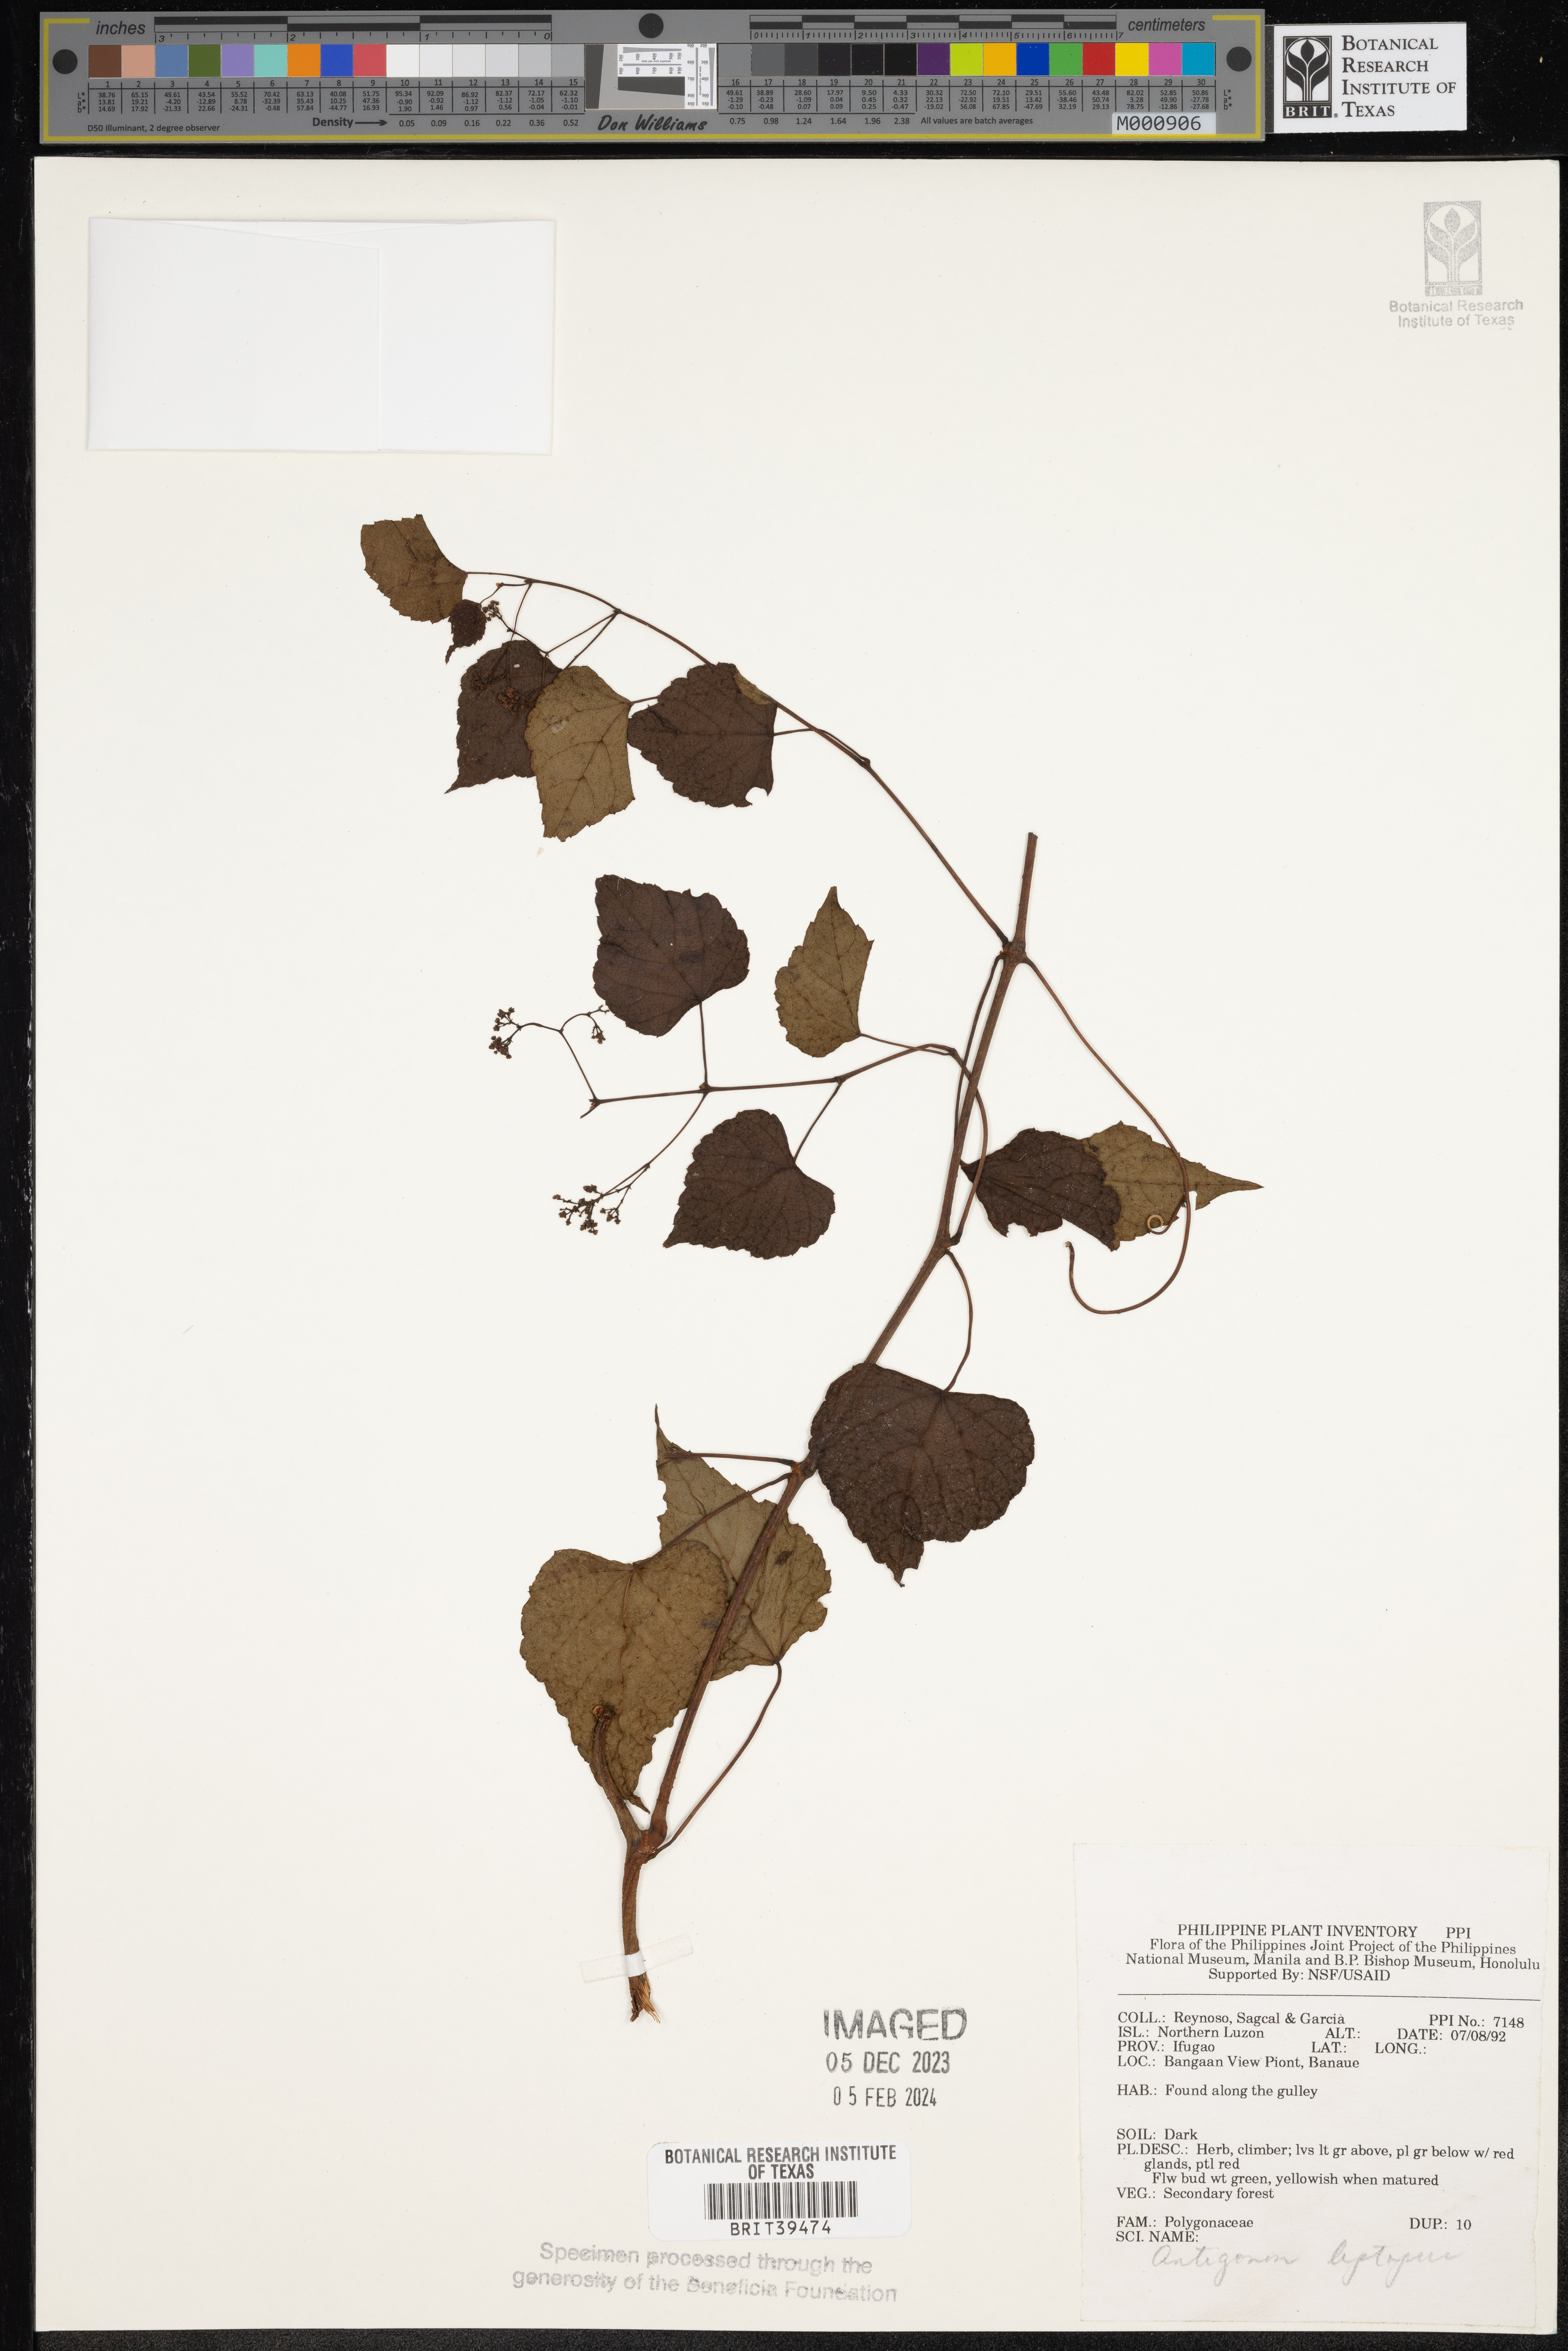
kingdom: Plantae
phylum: Tracheophyta
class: Magnoliopsida
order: Caryophyllales
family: Polygonaceae
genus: Antigonon
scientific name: Antigonon leptopus
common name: Coral vine
